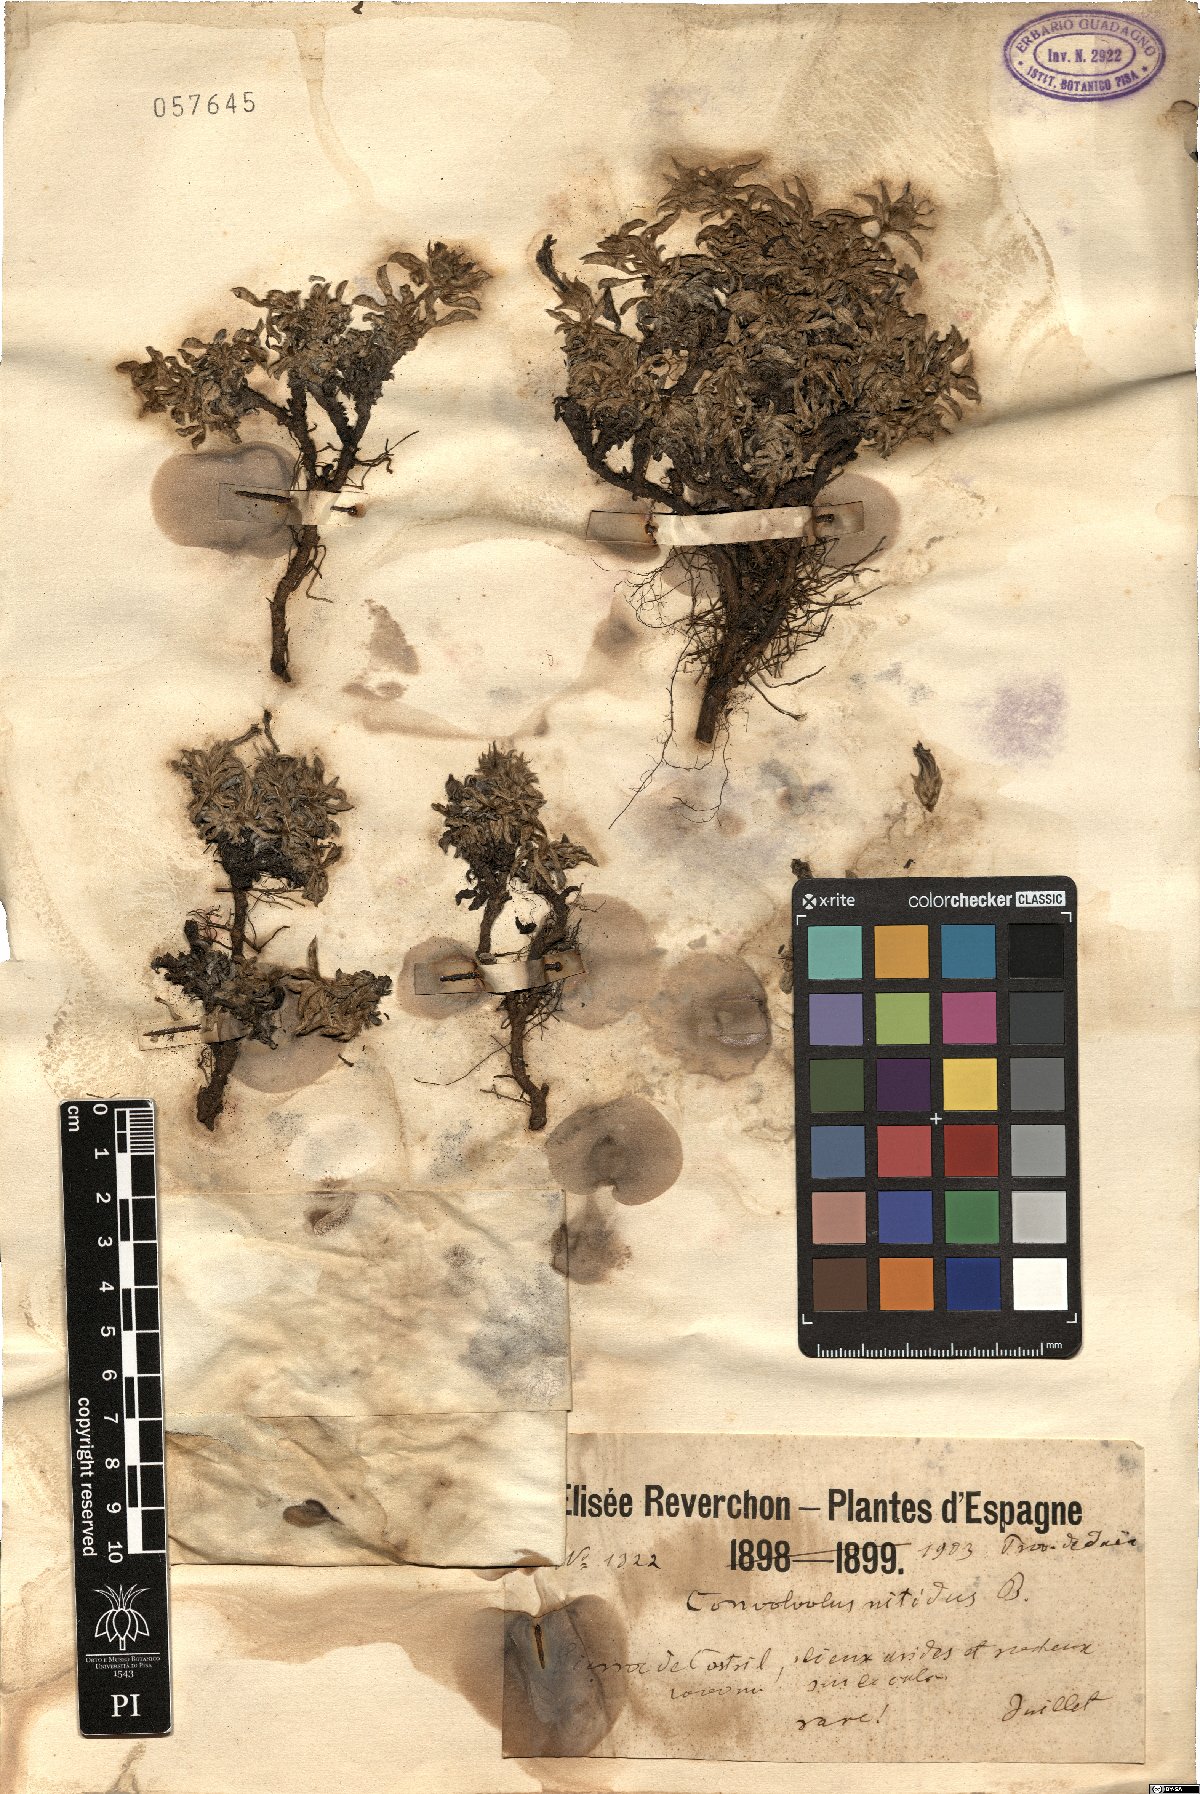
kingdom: Plantae
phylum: Tracheophyta
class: Magnoliopsida
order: Solanales
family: Convolvulaceae
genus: Convolvulus
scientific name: Convolvulus boissieri
